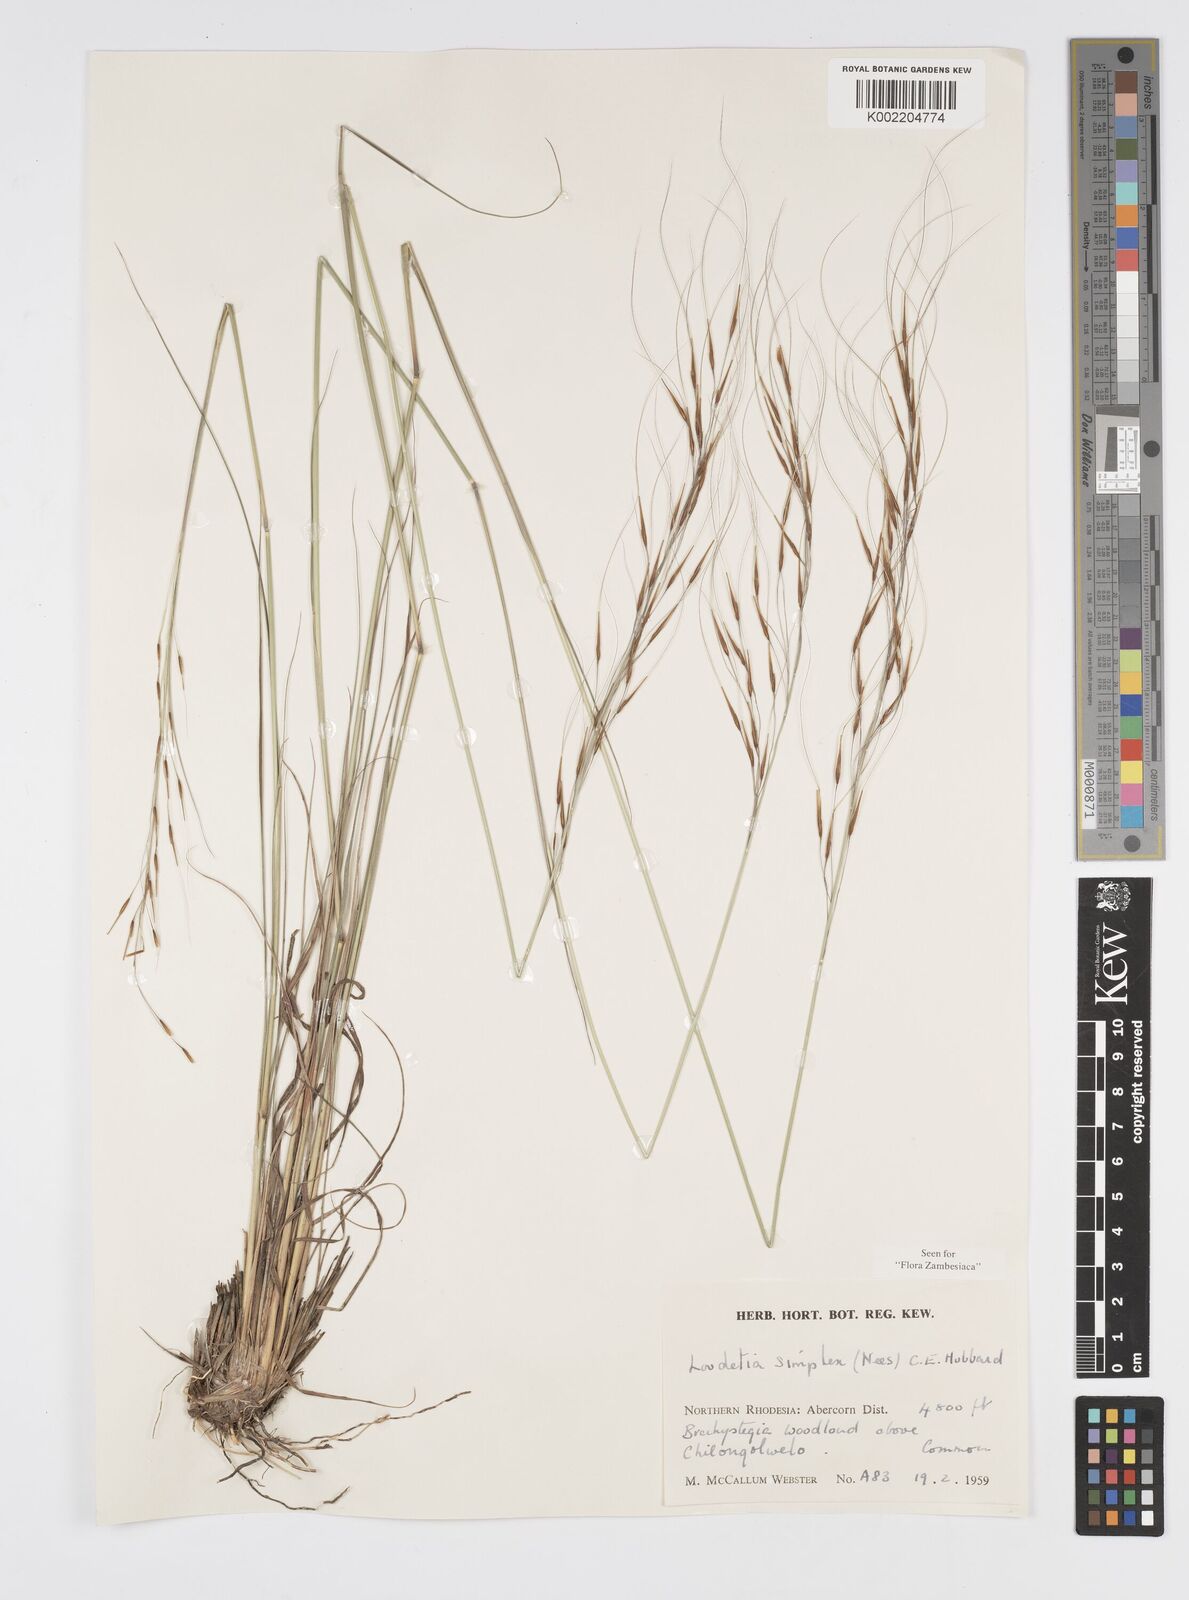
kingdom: Plantae
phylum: Tracheophyta
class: Liliopsida
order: Poales
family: Poaceae
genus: Loudetia
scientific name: Loudetia simplex
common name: Common russet grass
